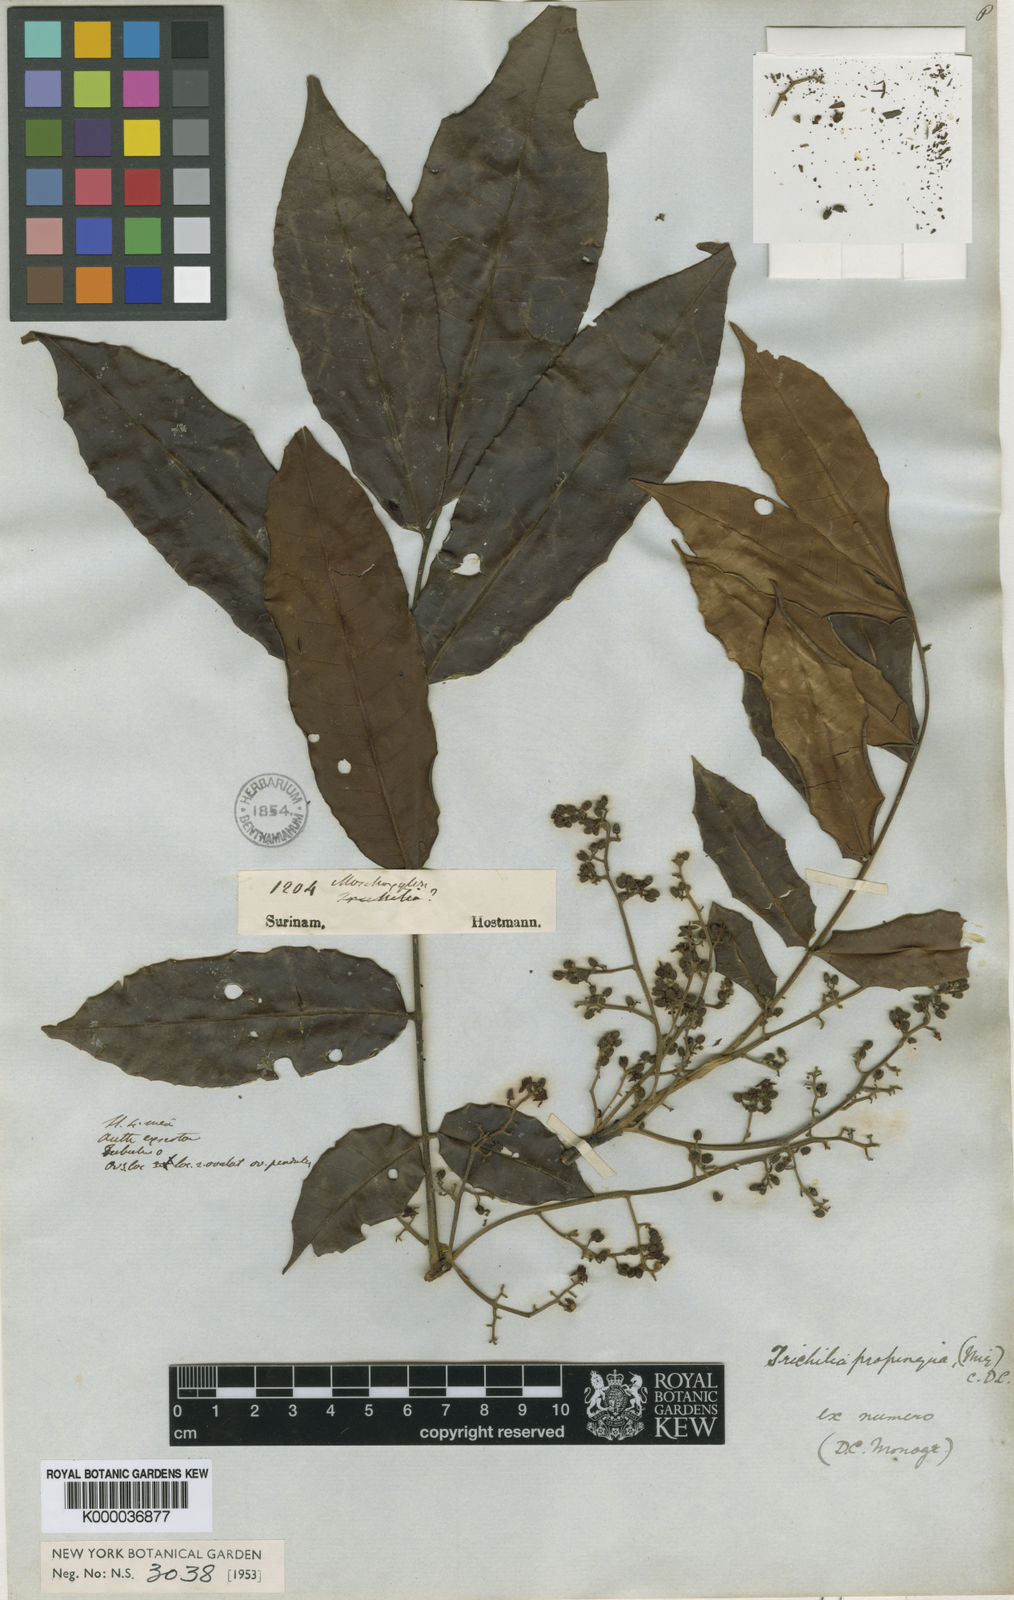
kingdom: Plantae
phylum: Tracheophyta
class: Magnoliopsida
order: Sapindales
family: Meliaceae
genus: Trichilia
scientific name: Trichilia quadrijuga
